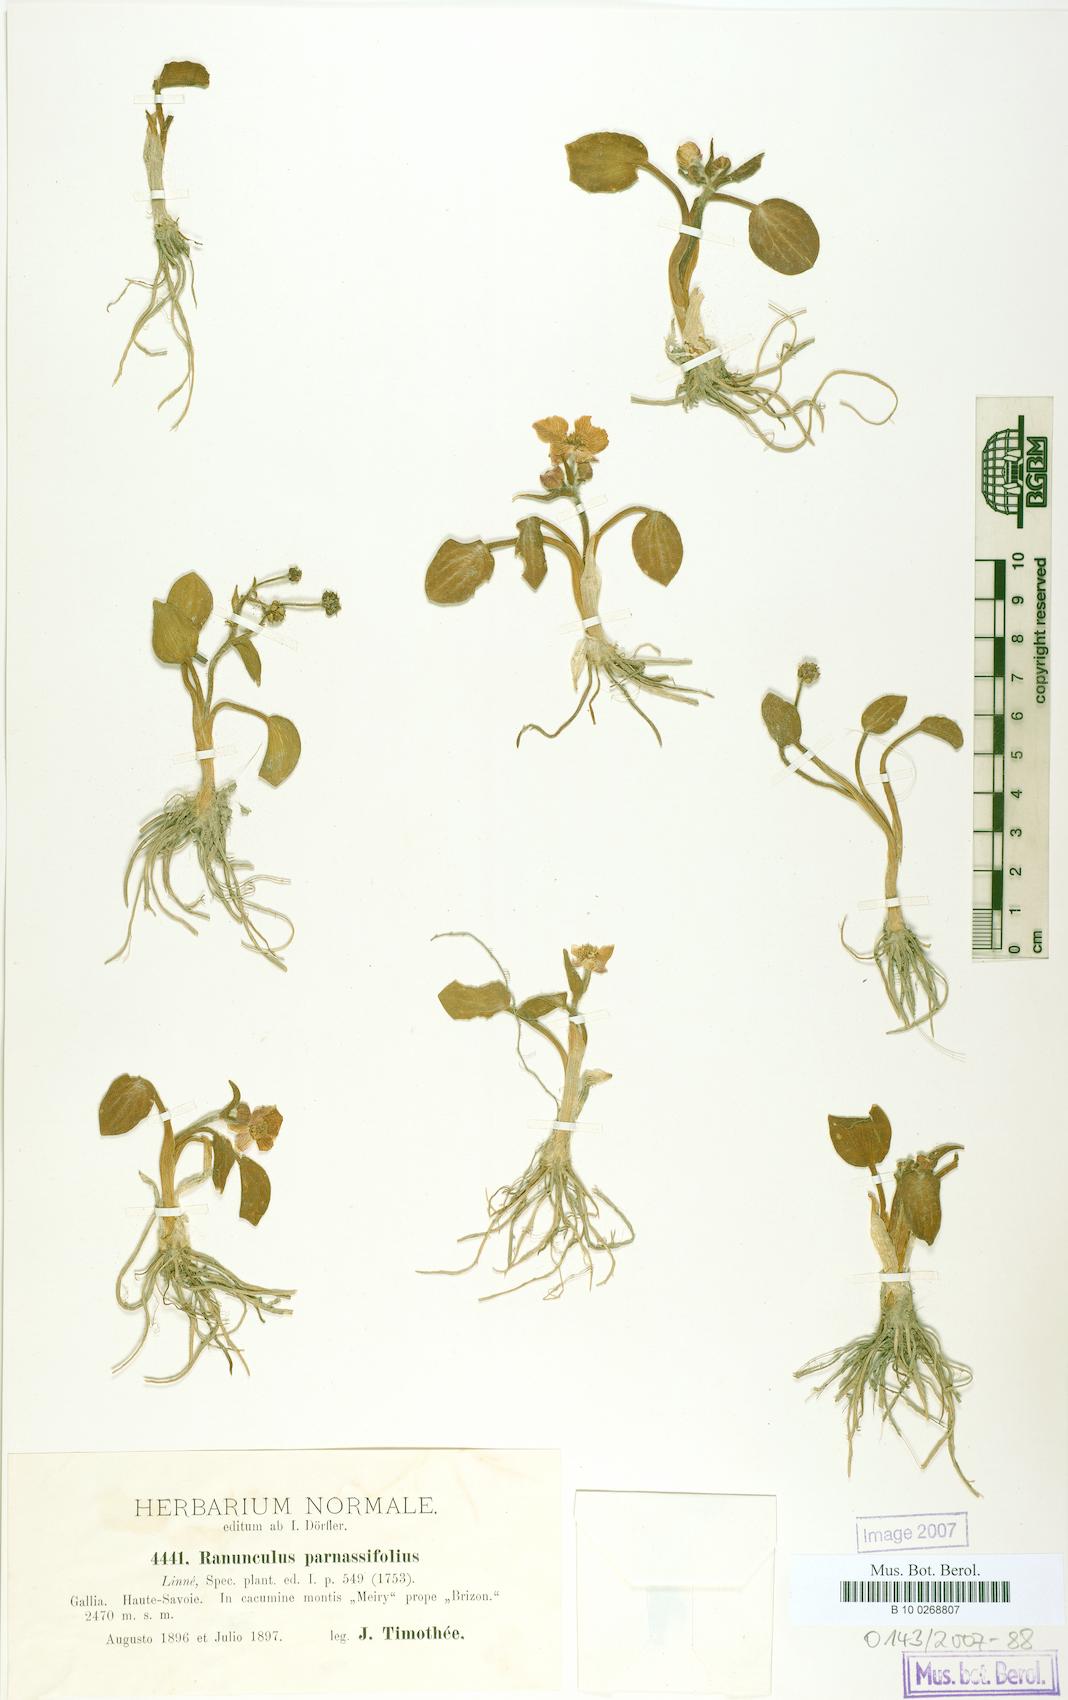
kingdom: Plantae
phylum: Tracheophyta
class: Magnoliopsida
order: Ranunculales
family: Ranunculaceae
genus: Ranunculus
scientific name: Ranunculus parnassiifolius
